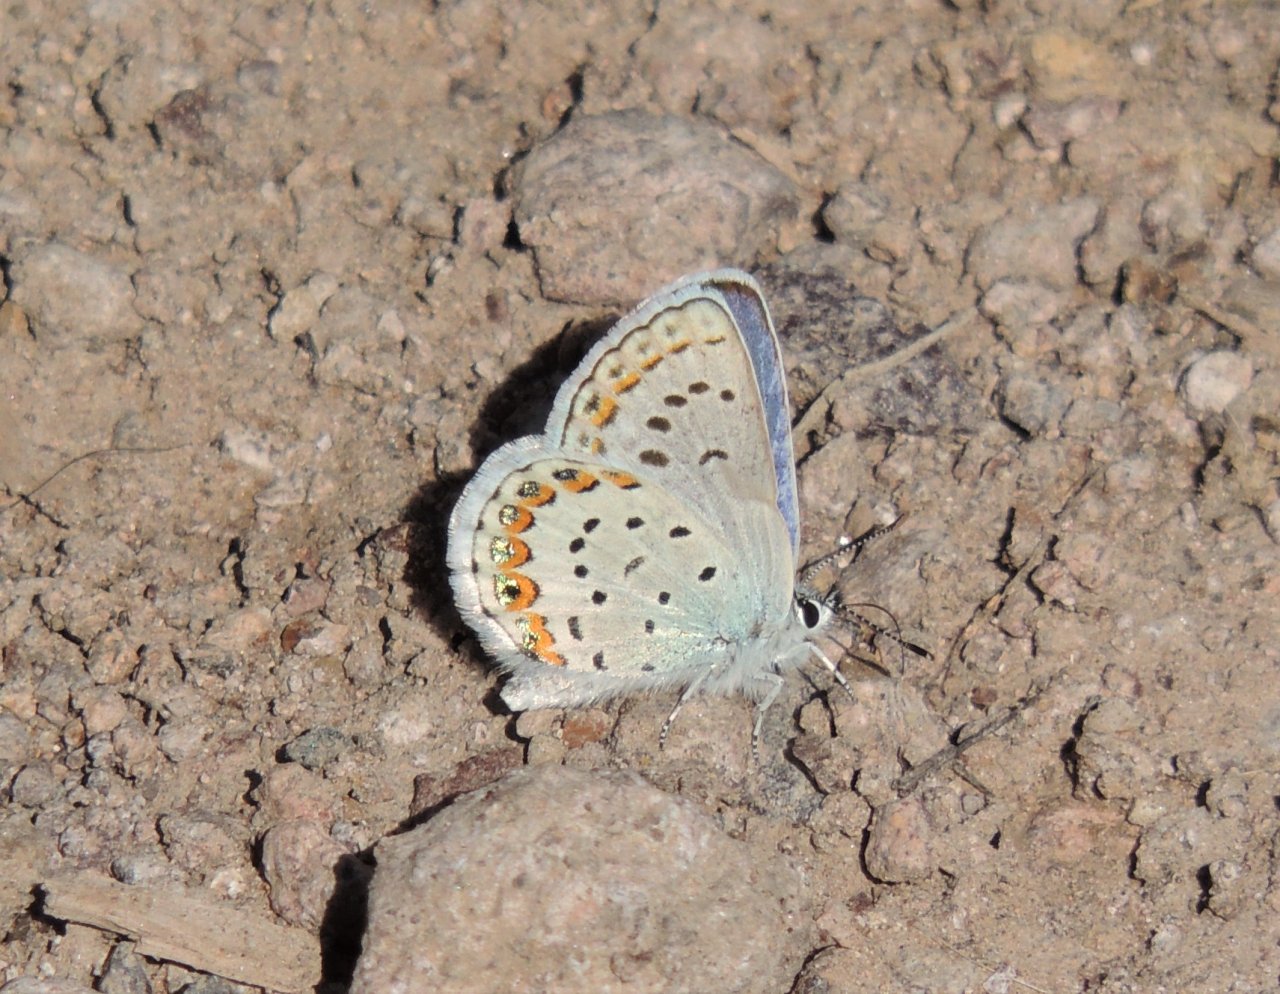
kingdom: Animalia
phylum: Arthropoda
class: Insecta
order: Lepidoptera
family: Lycaenidae
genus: Lycaeides
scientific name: Lycaeides melissa
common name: Melissa Blue
